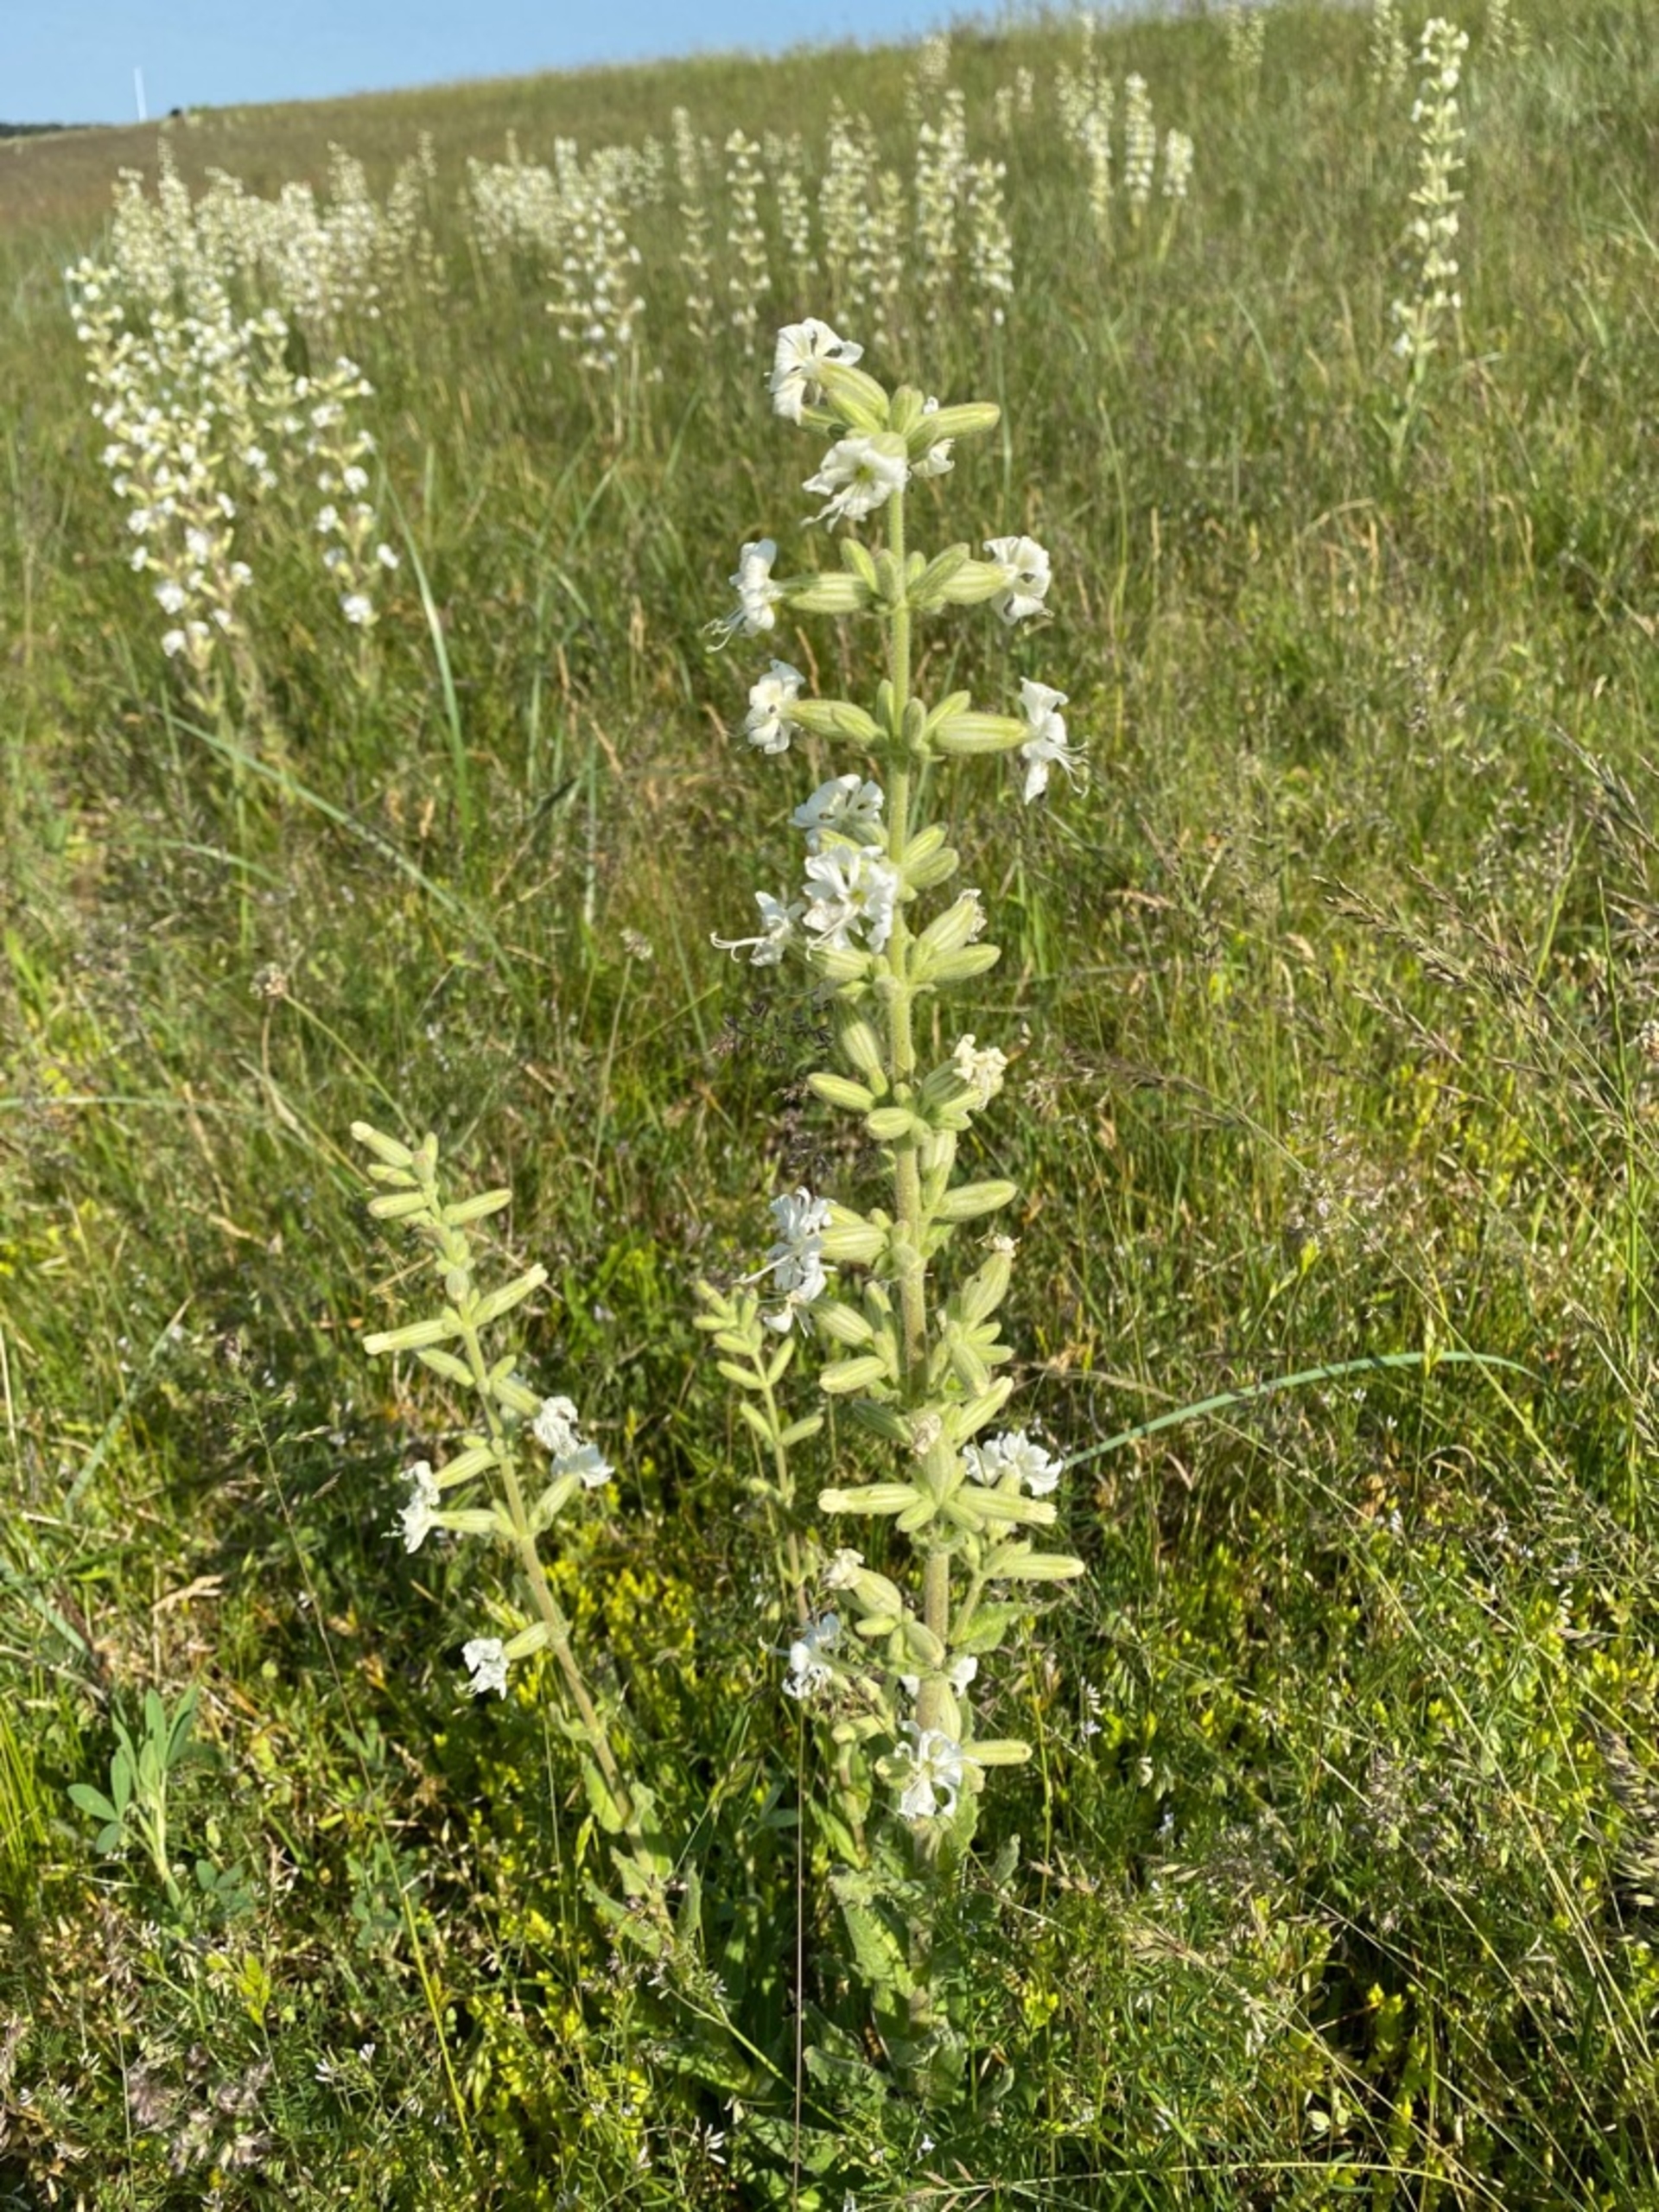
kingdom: Plantae
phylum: Tracheophyta
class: Magnoliopsida
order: Caryophyllales
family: Caryophyllaceae
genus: Silene
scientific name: Silene viscosa
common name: Klæbrig limurt
